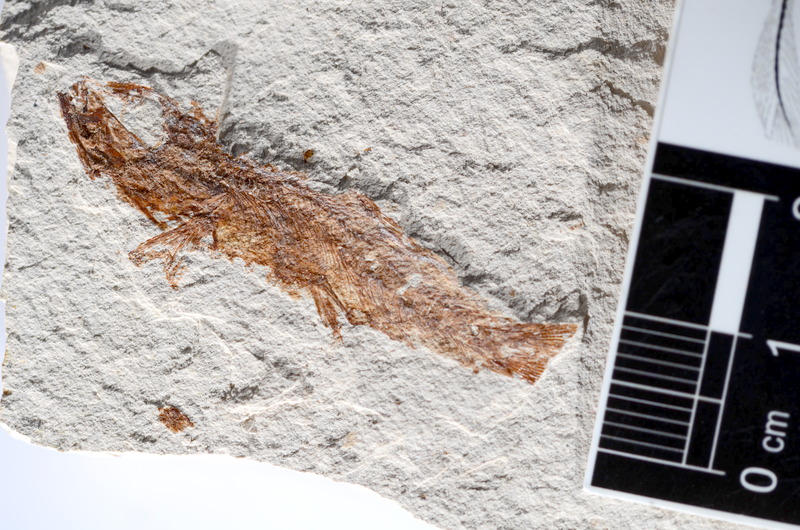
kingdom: Animalia
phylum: Chordata
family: Ascalaboidae
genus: Tharsis
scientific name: Tharsis dubius
